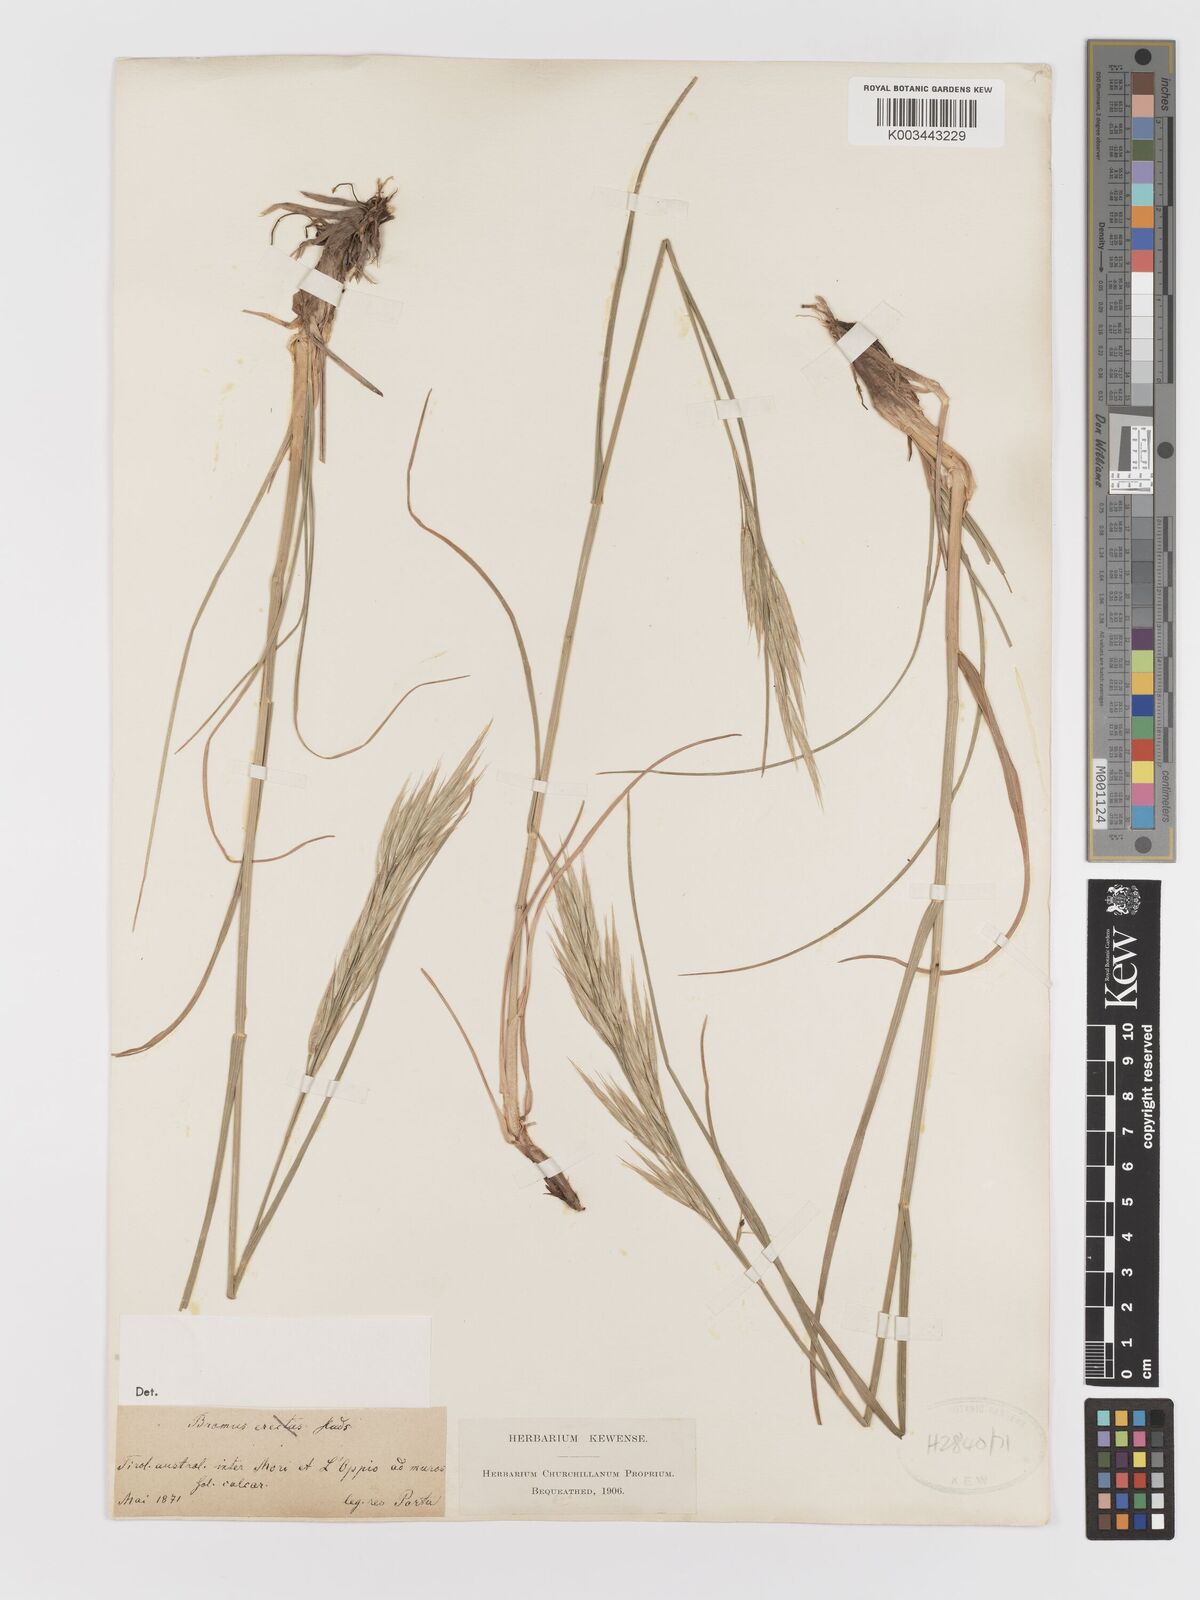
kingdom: Plantae
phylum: Tracheophyta
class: Liliopsida
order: Poales
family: Poaceae
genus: Bromus
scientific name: Bromus
